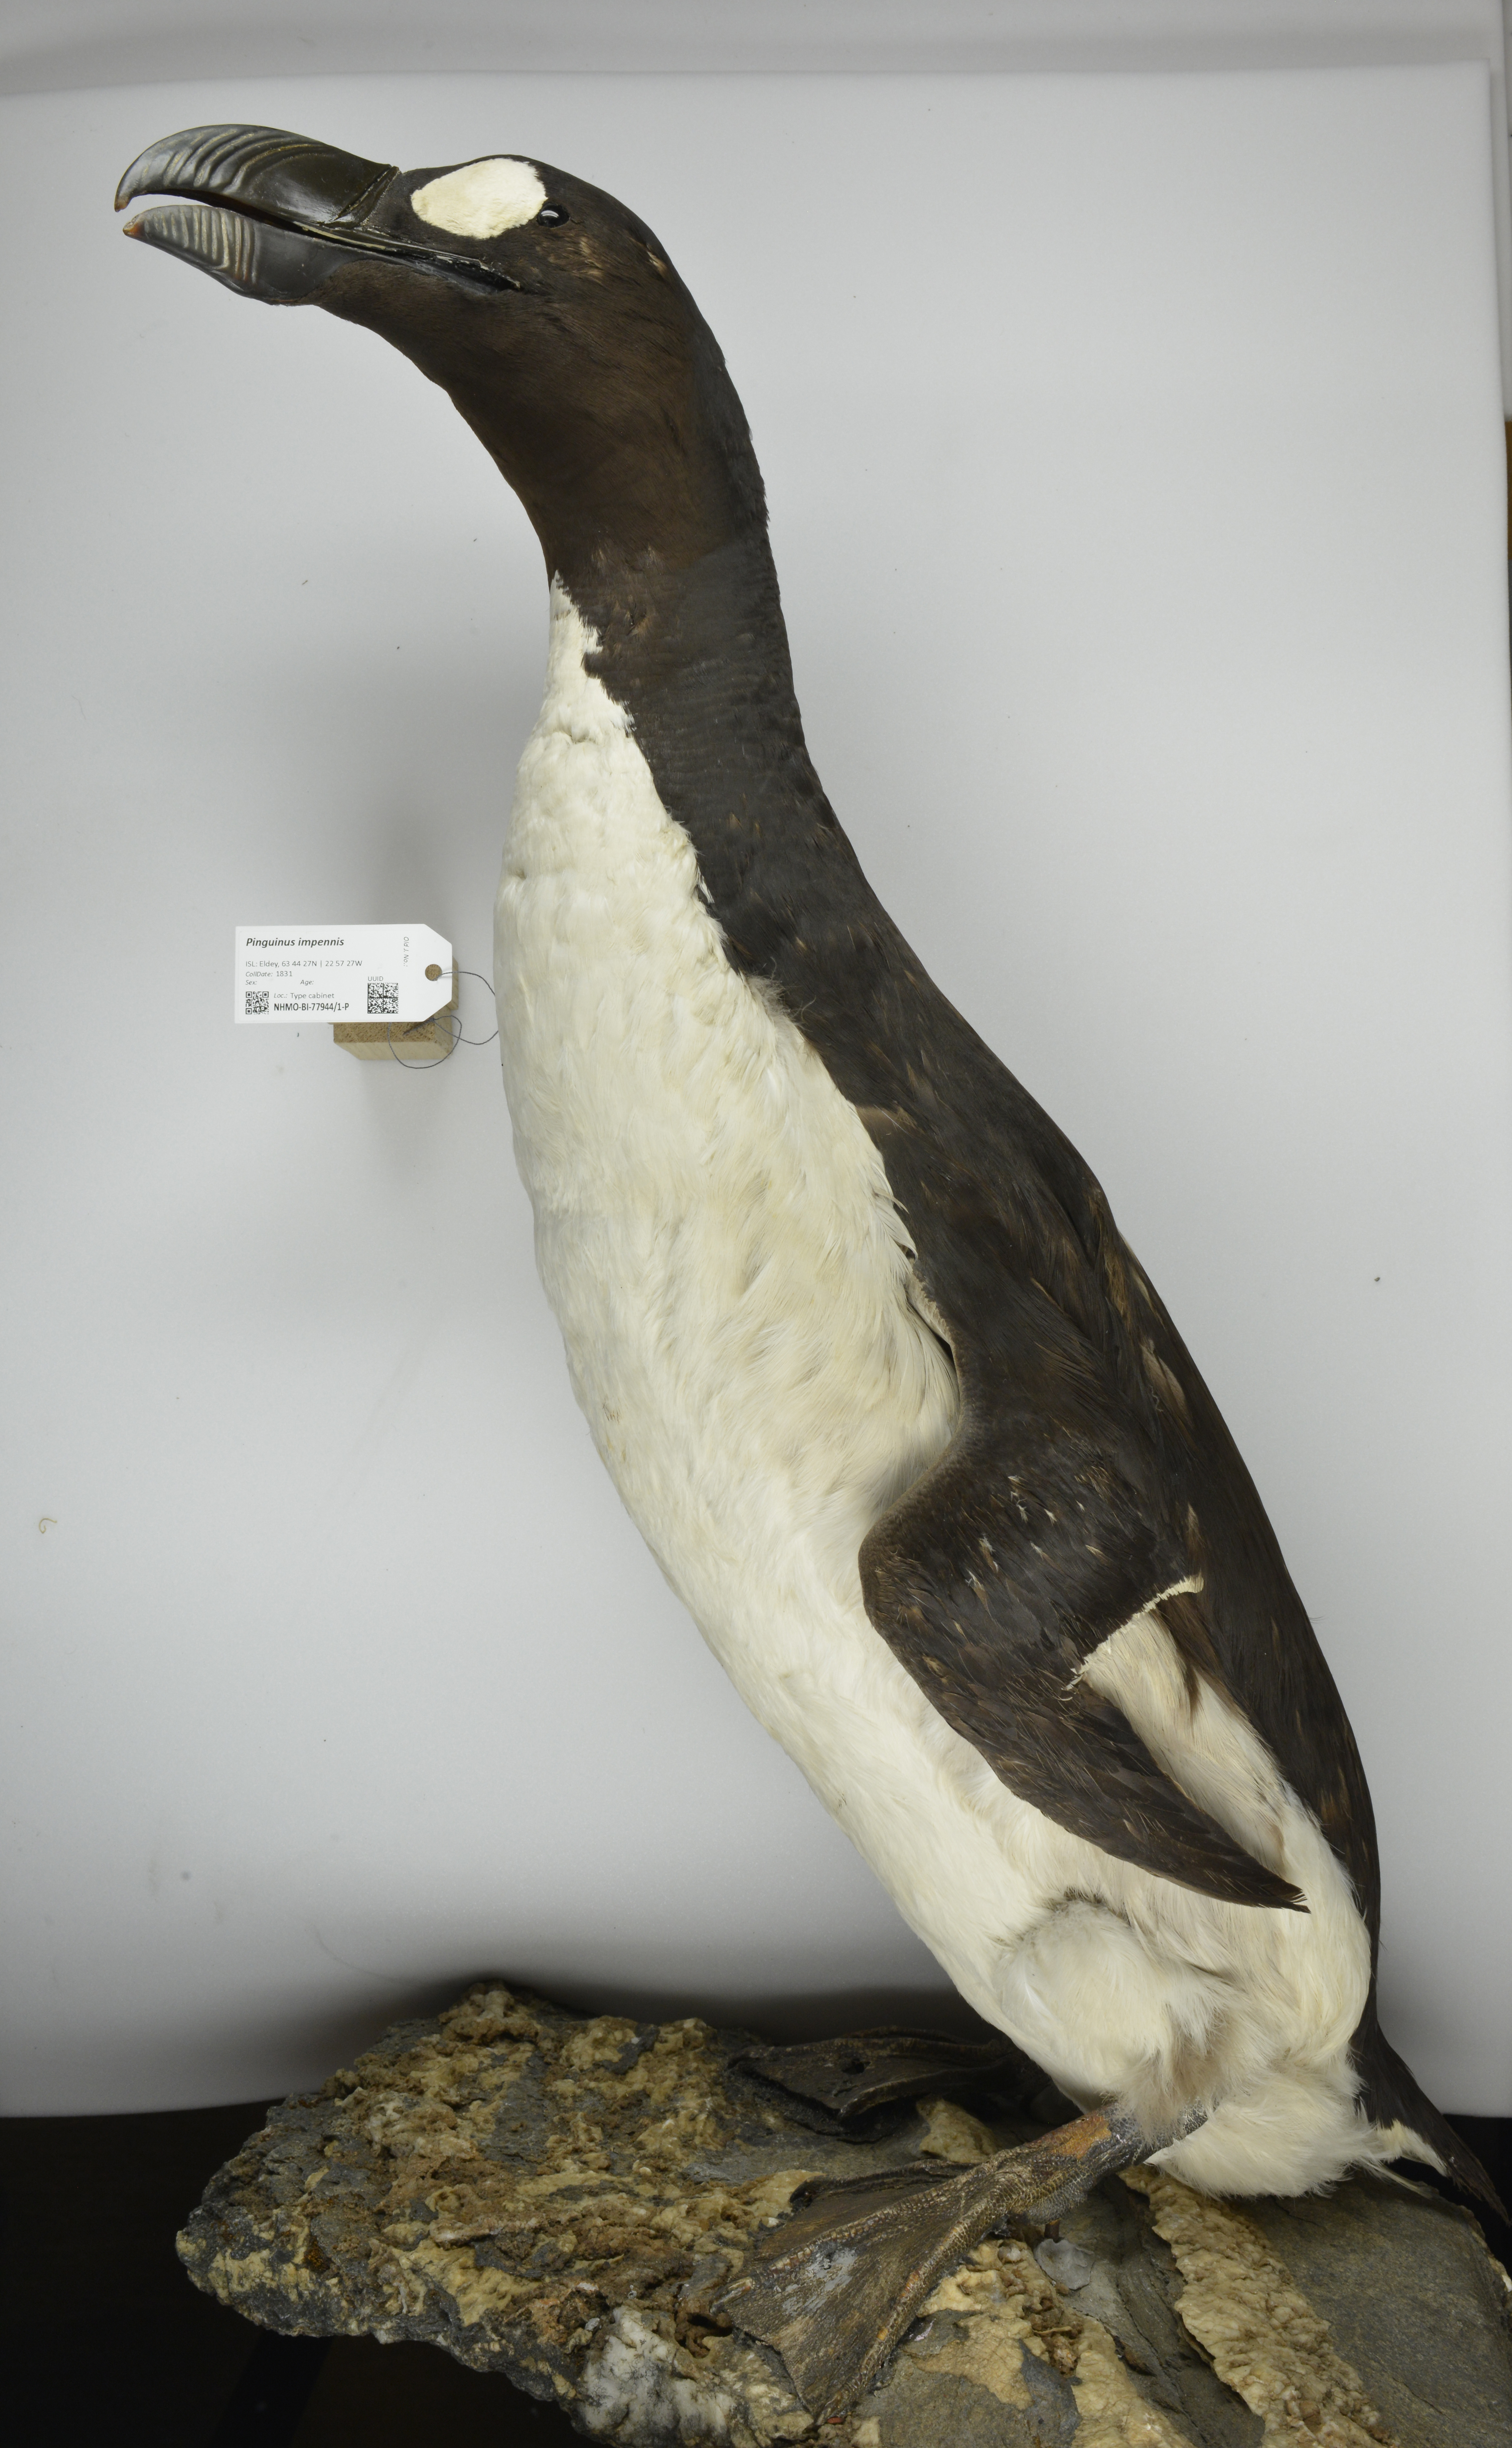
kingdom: Animalia
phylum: Chordata
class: Aves
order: Charadriiformes
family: Alcidae
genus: Pinguinus
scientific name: Pinguinus impennis
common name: Great auk
